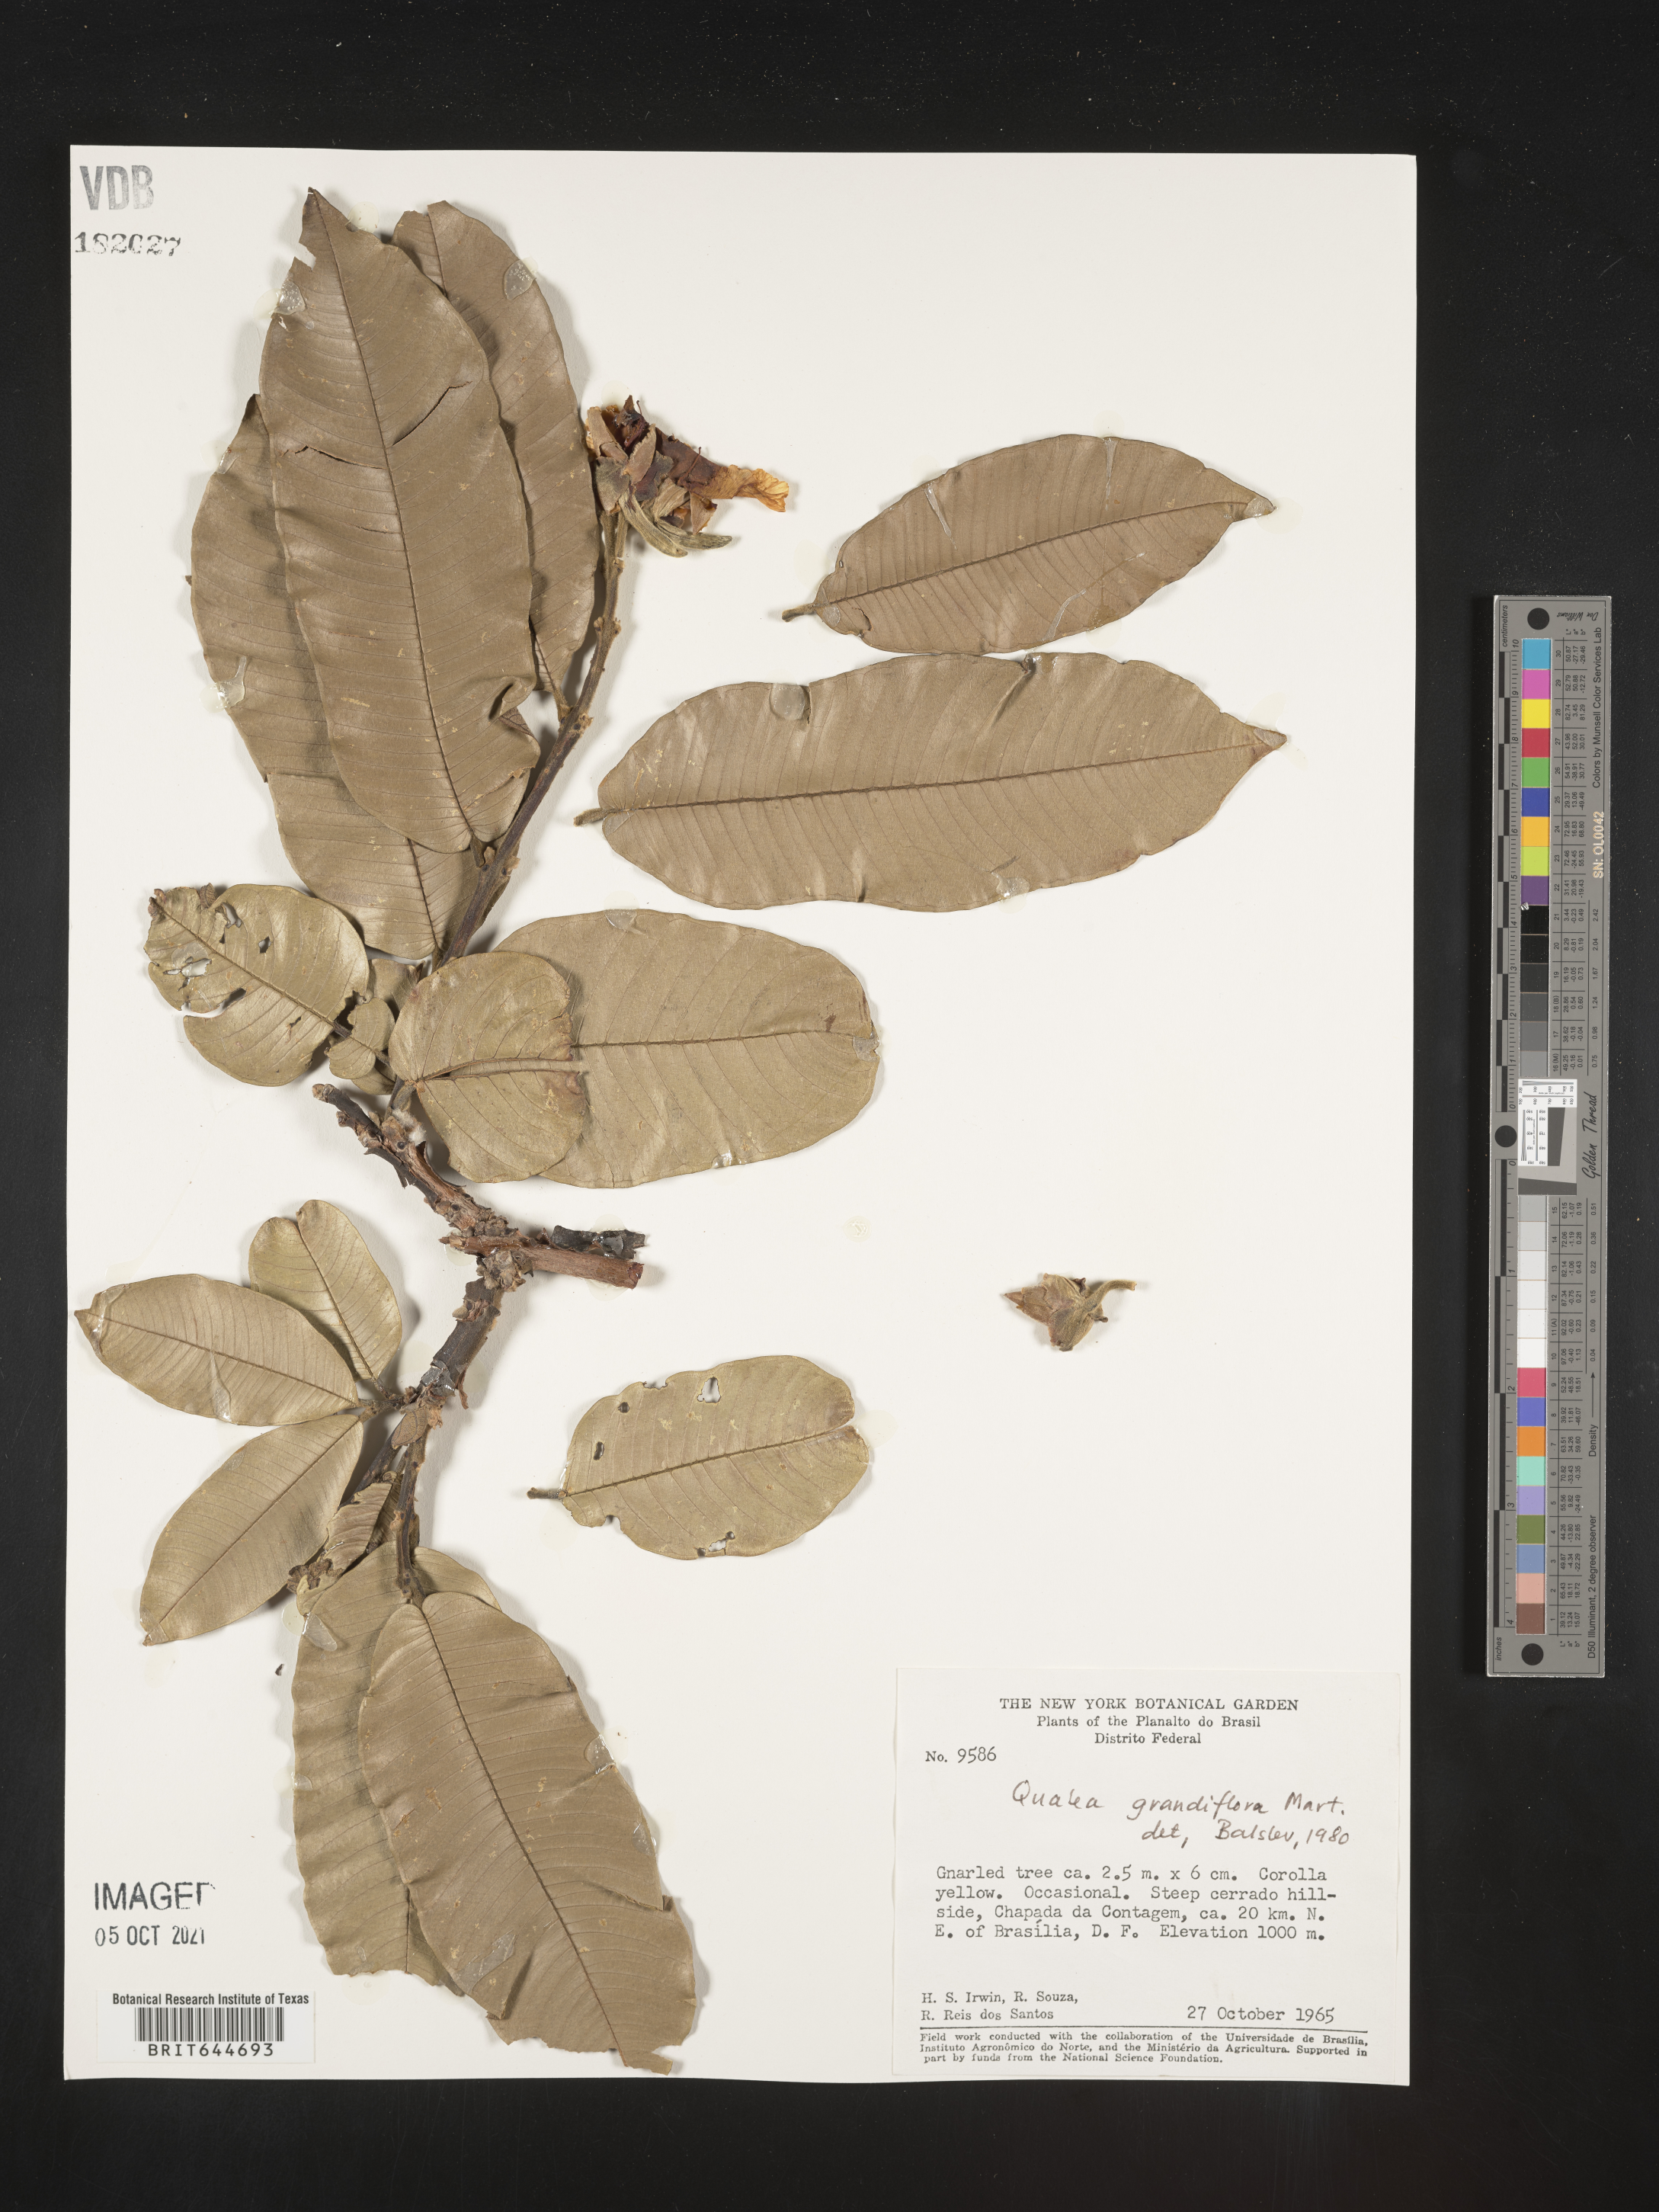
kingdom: Plantae
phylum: Tracheophyta
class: Magnoliopsida
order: Myrtales
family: Vochysiaceae
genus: Qualea
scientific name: Qualea
